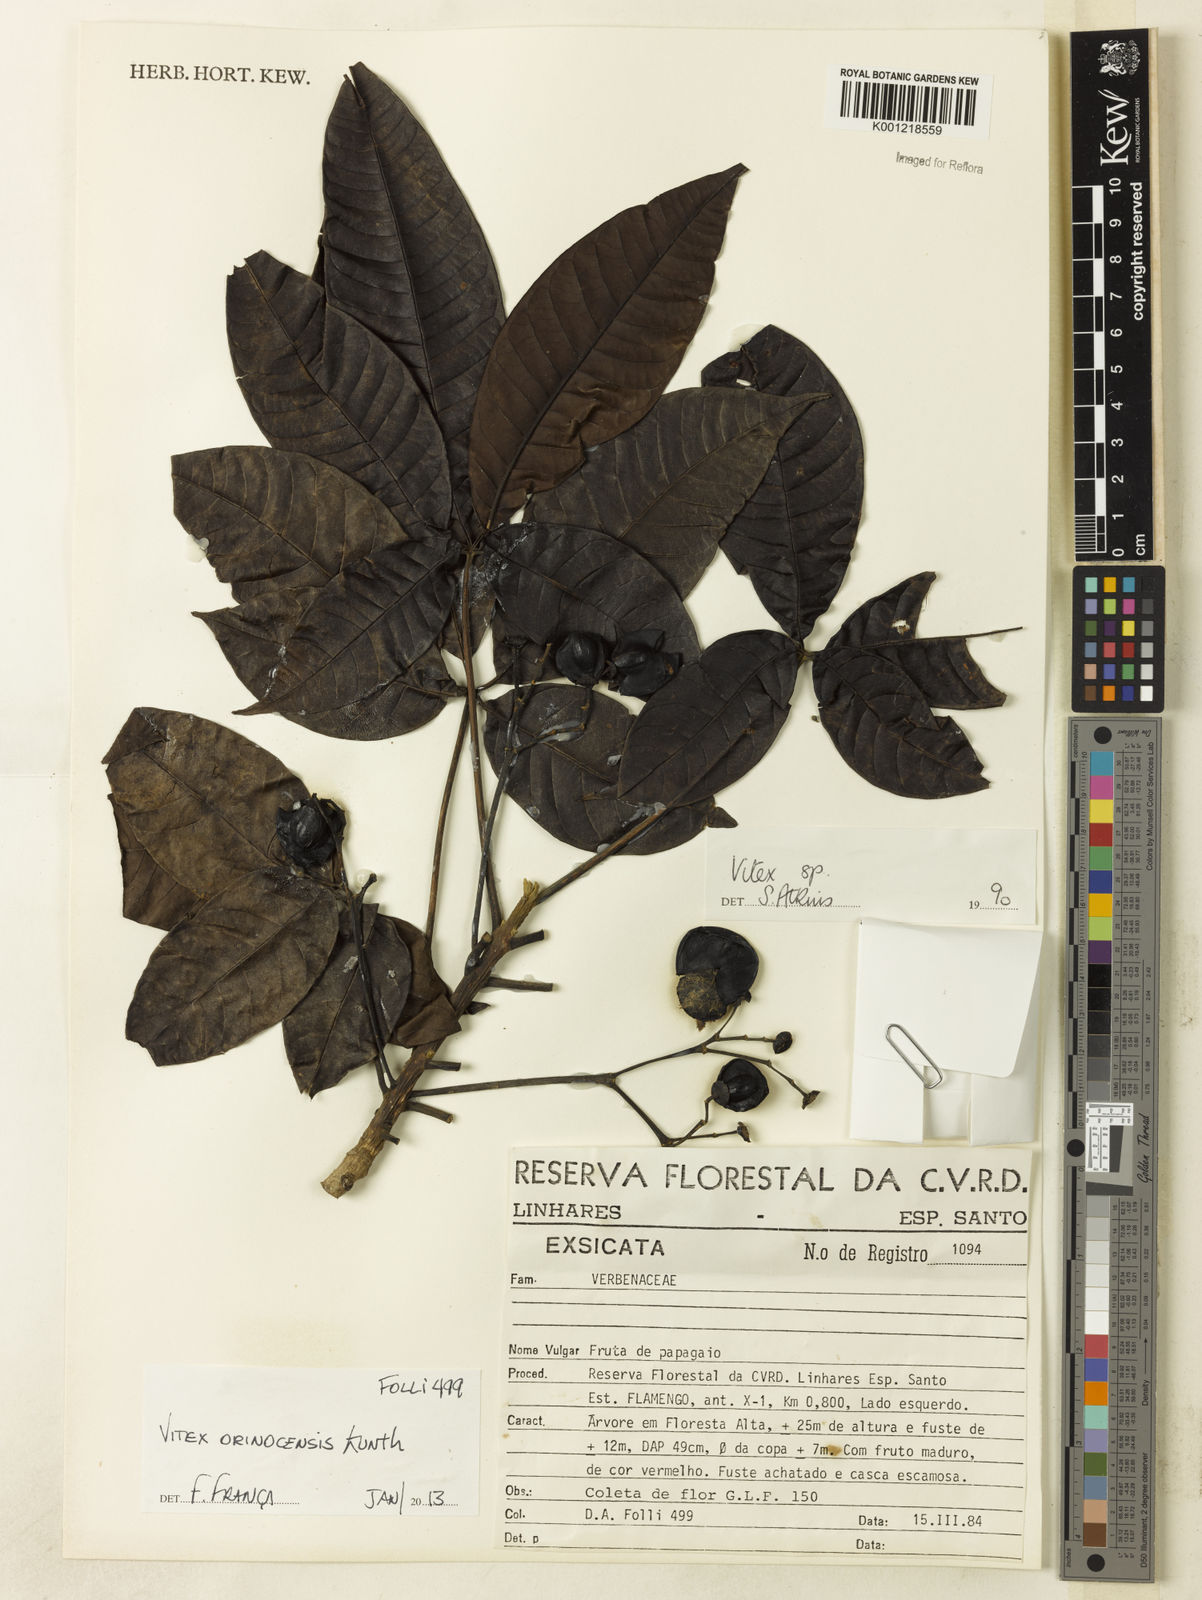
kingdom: Plantae
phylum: Tracheophyta
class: Magnoliopsida
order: Lamiales
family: Lamiaceae
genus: Vitex
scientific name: Vitex orinocensis
